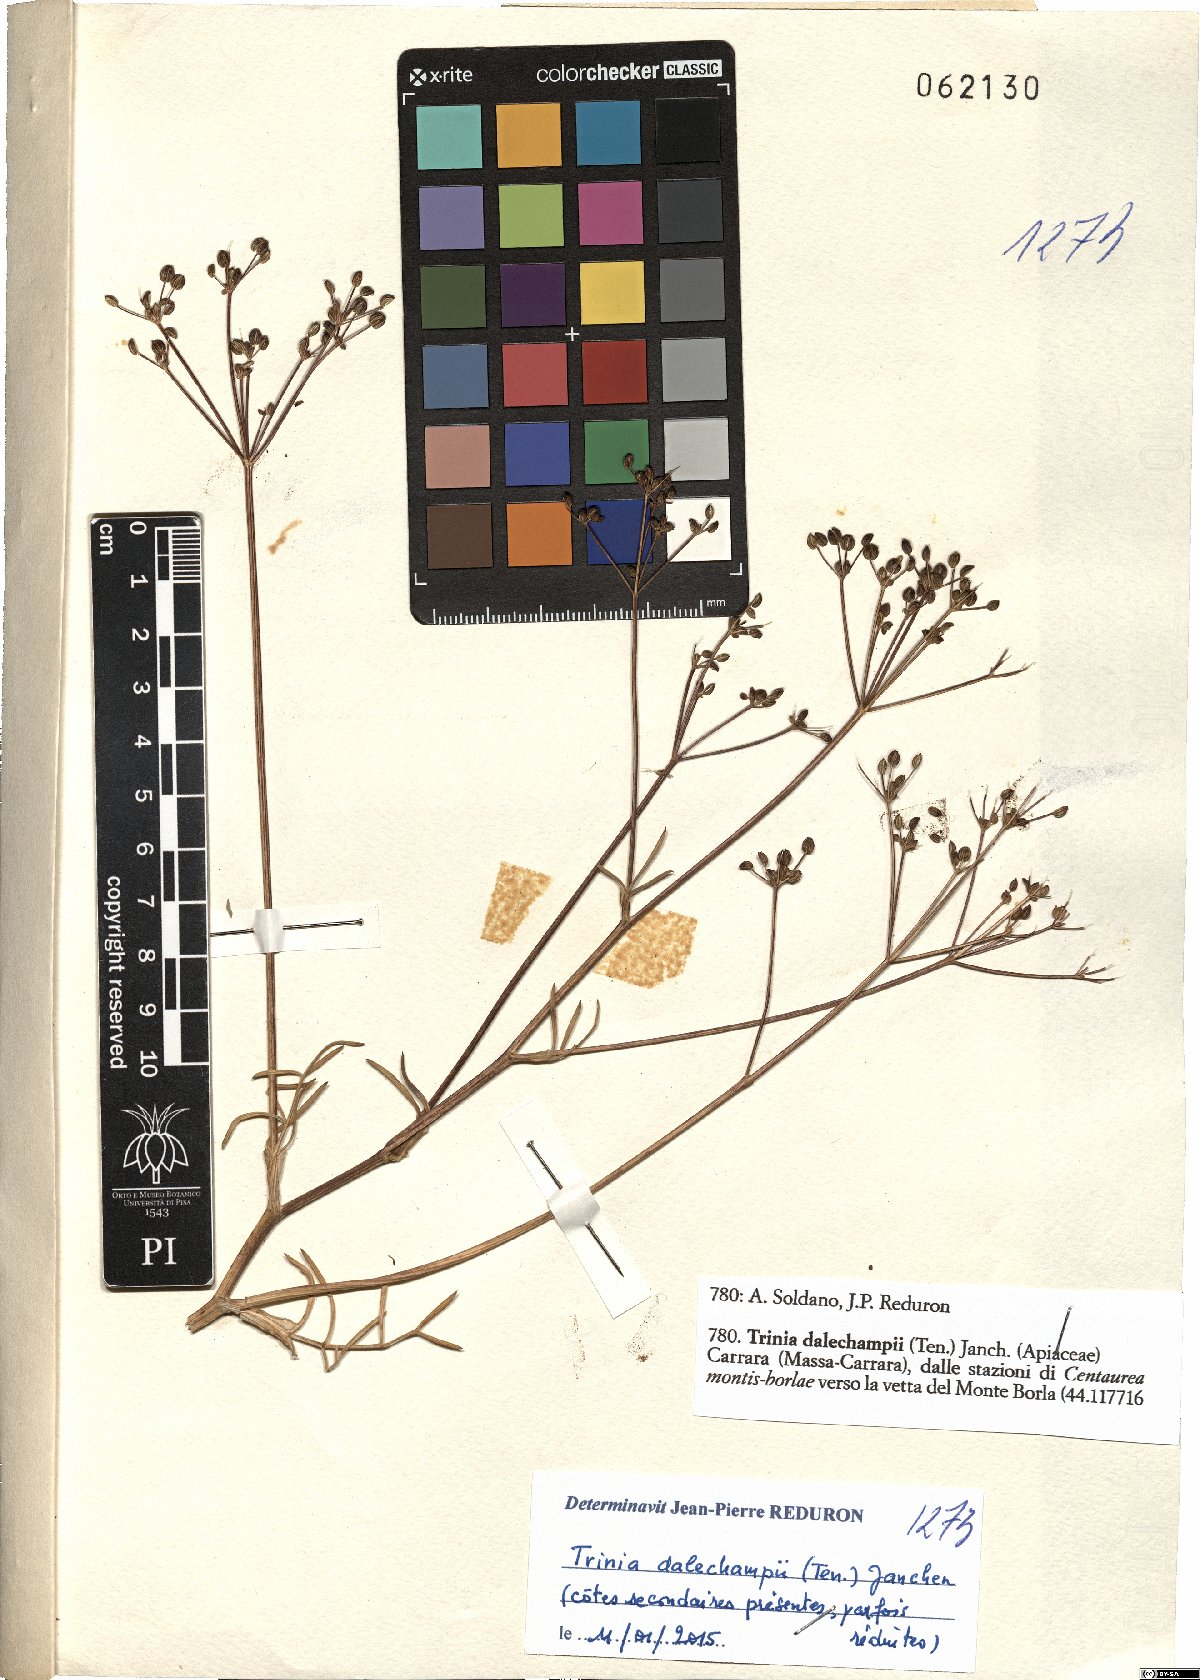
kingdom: Plantae
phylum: Tracheophyta
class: Magnoliopsida
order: Apiales
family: Apiaceae
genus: Trinia
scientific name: Trinia dalechampii
